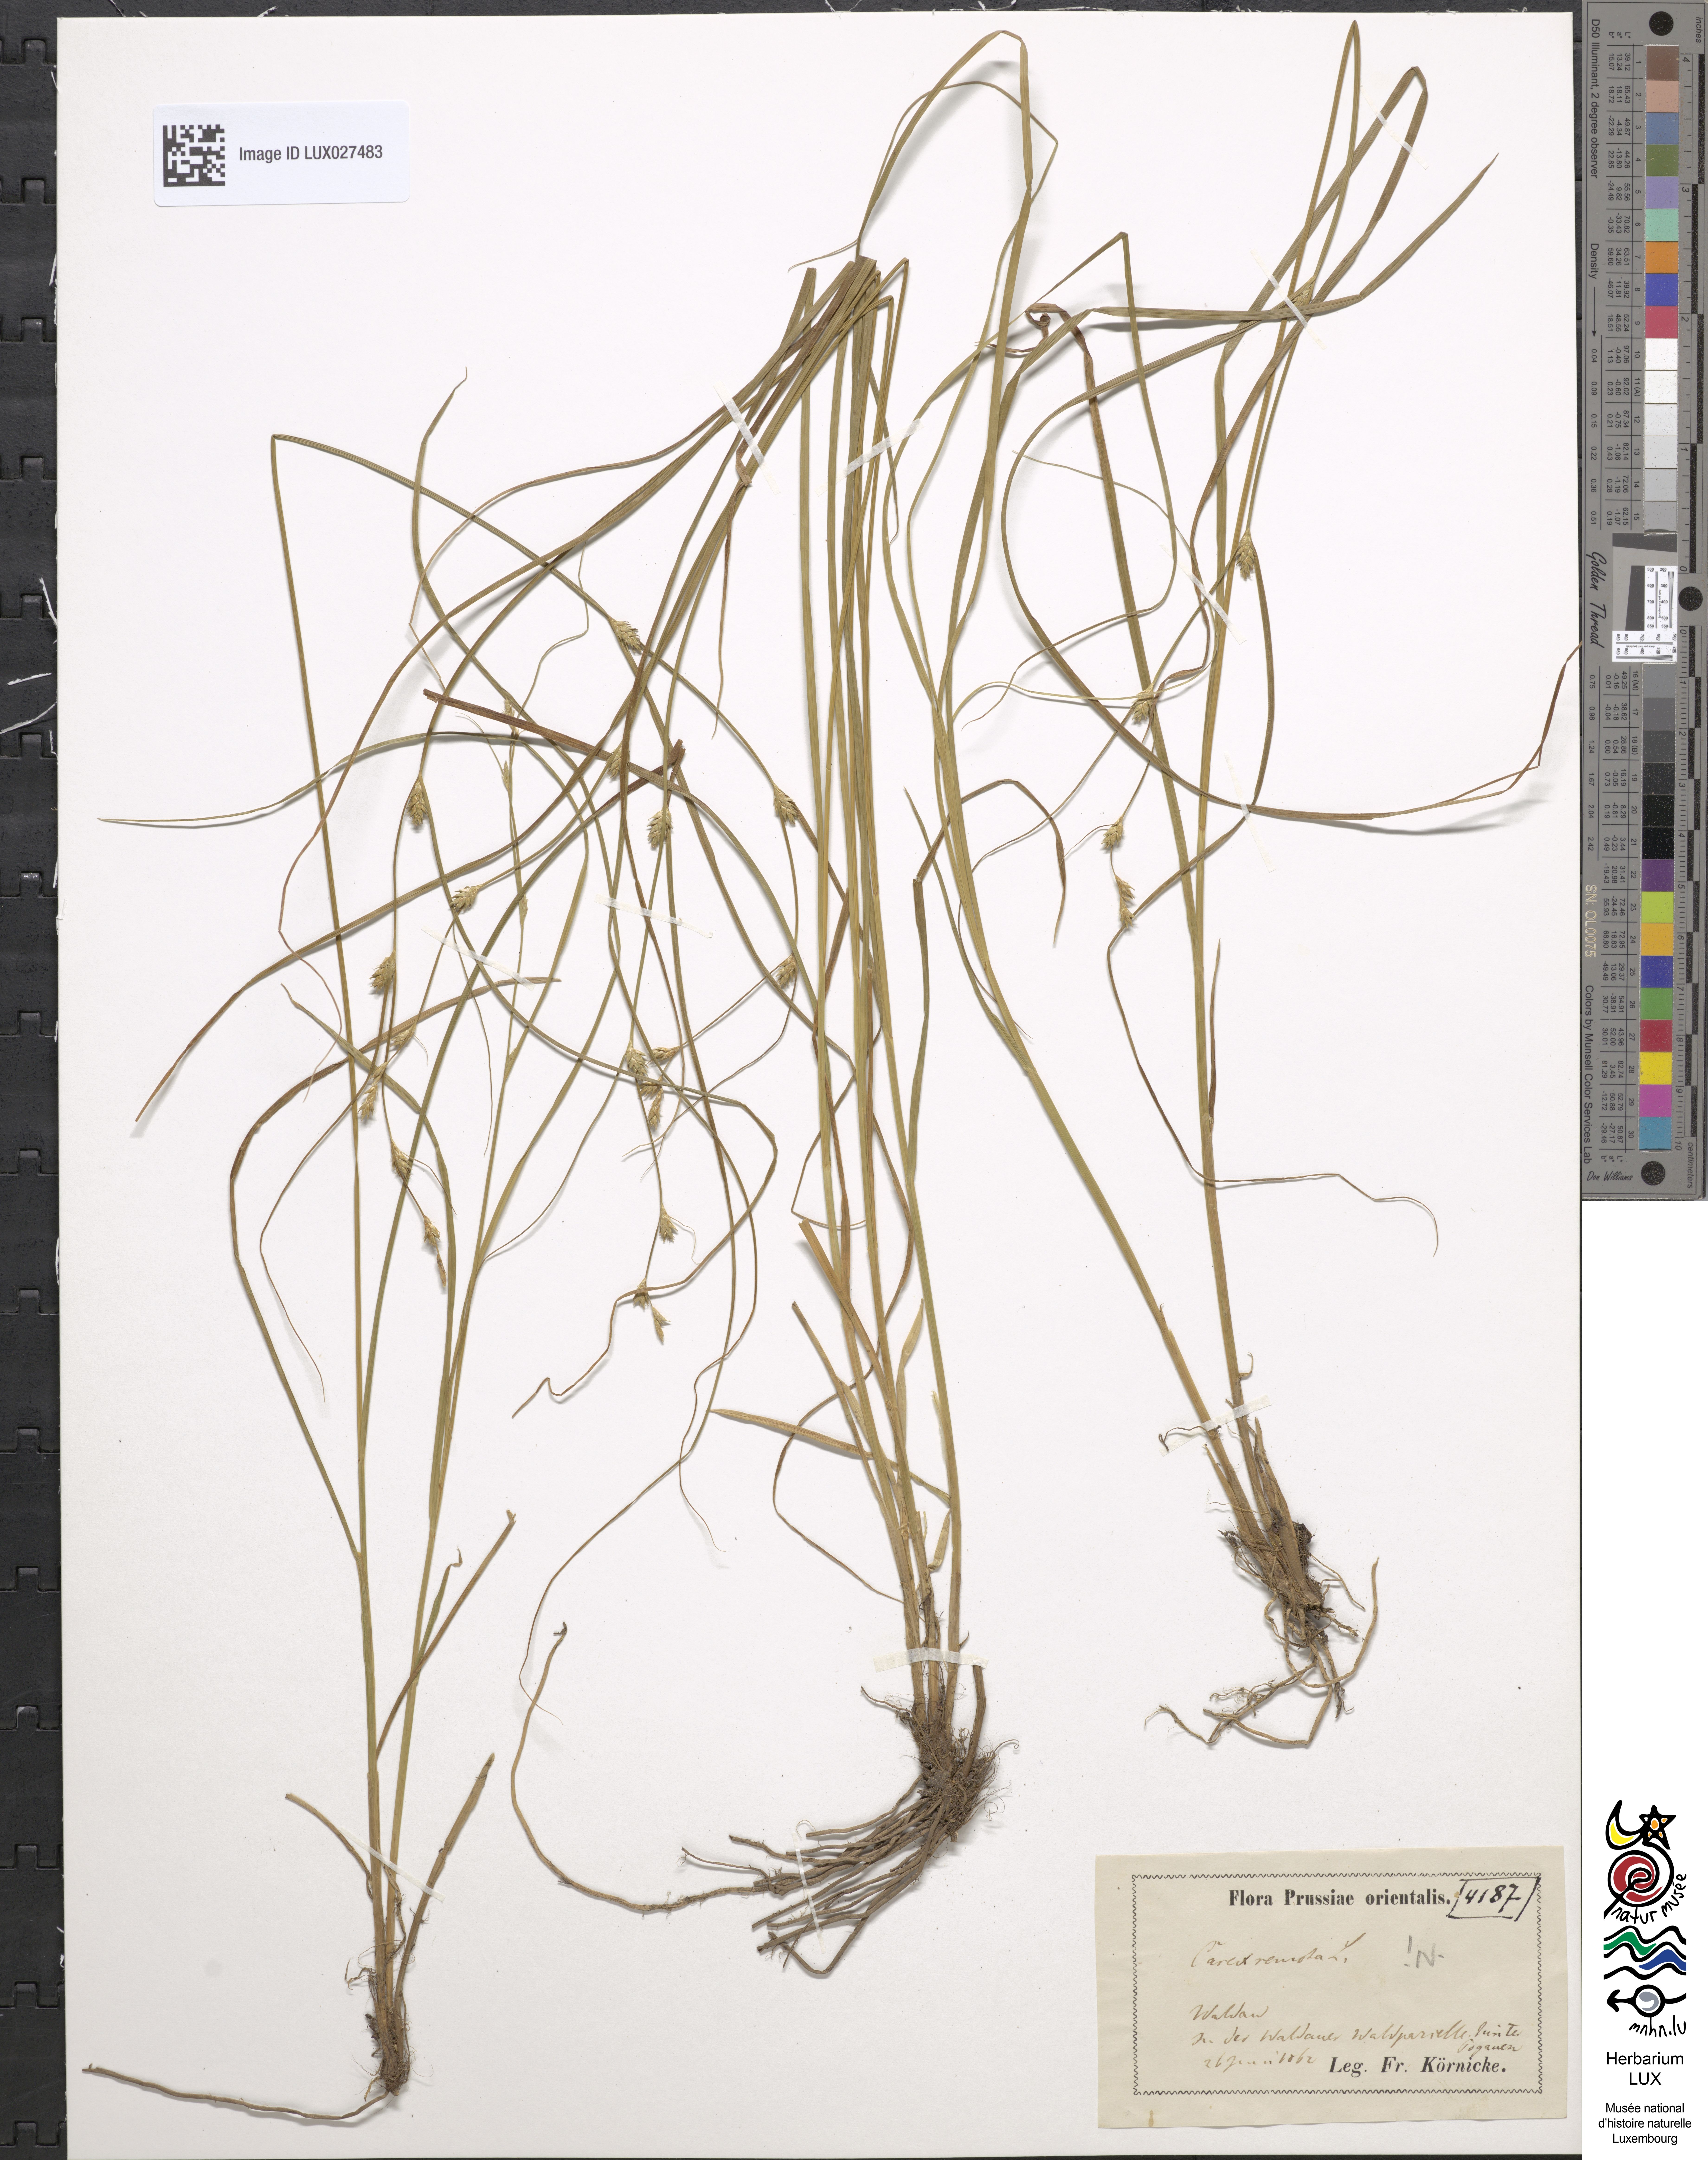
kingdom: Plantae
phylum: Tracheophyta
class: Liliopsida
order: Poales
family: Cyperaceae
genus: Carex
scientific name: Carex remota
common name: Remote sedge
